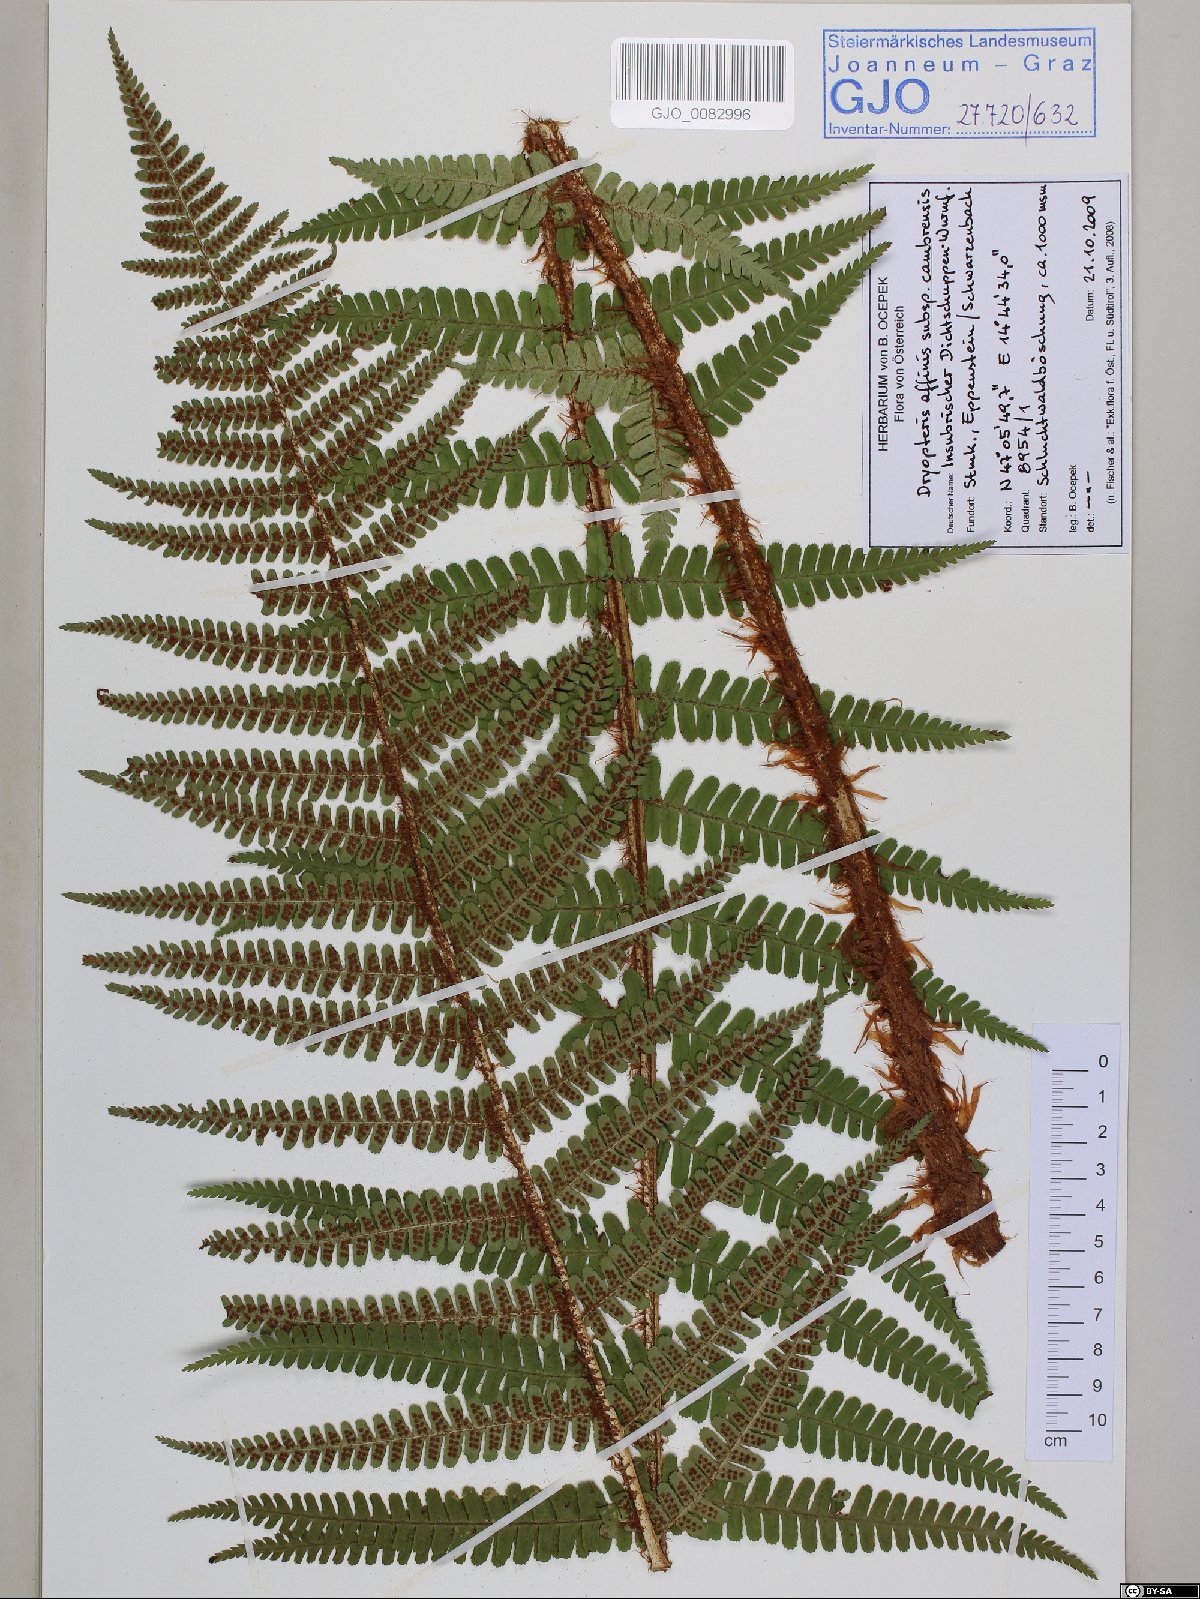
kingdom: Plantae
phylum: Tracheophyta
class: Polypodiopsida
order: Polypodiales
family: Dryopteridaceae
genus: Dryopteris
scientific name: Dryopteris cambrensis
